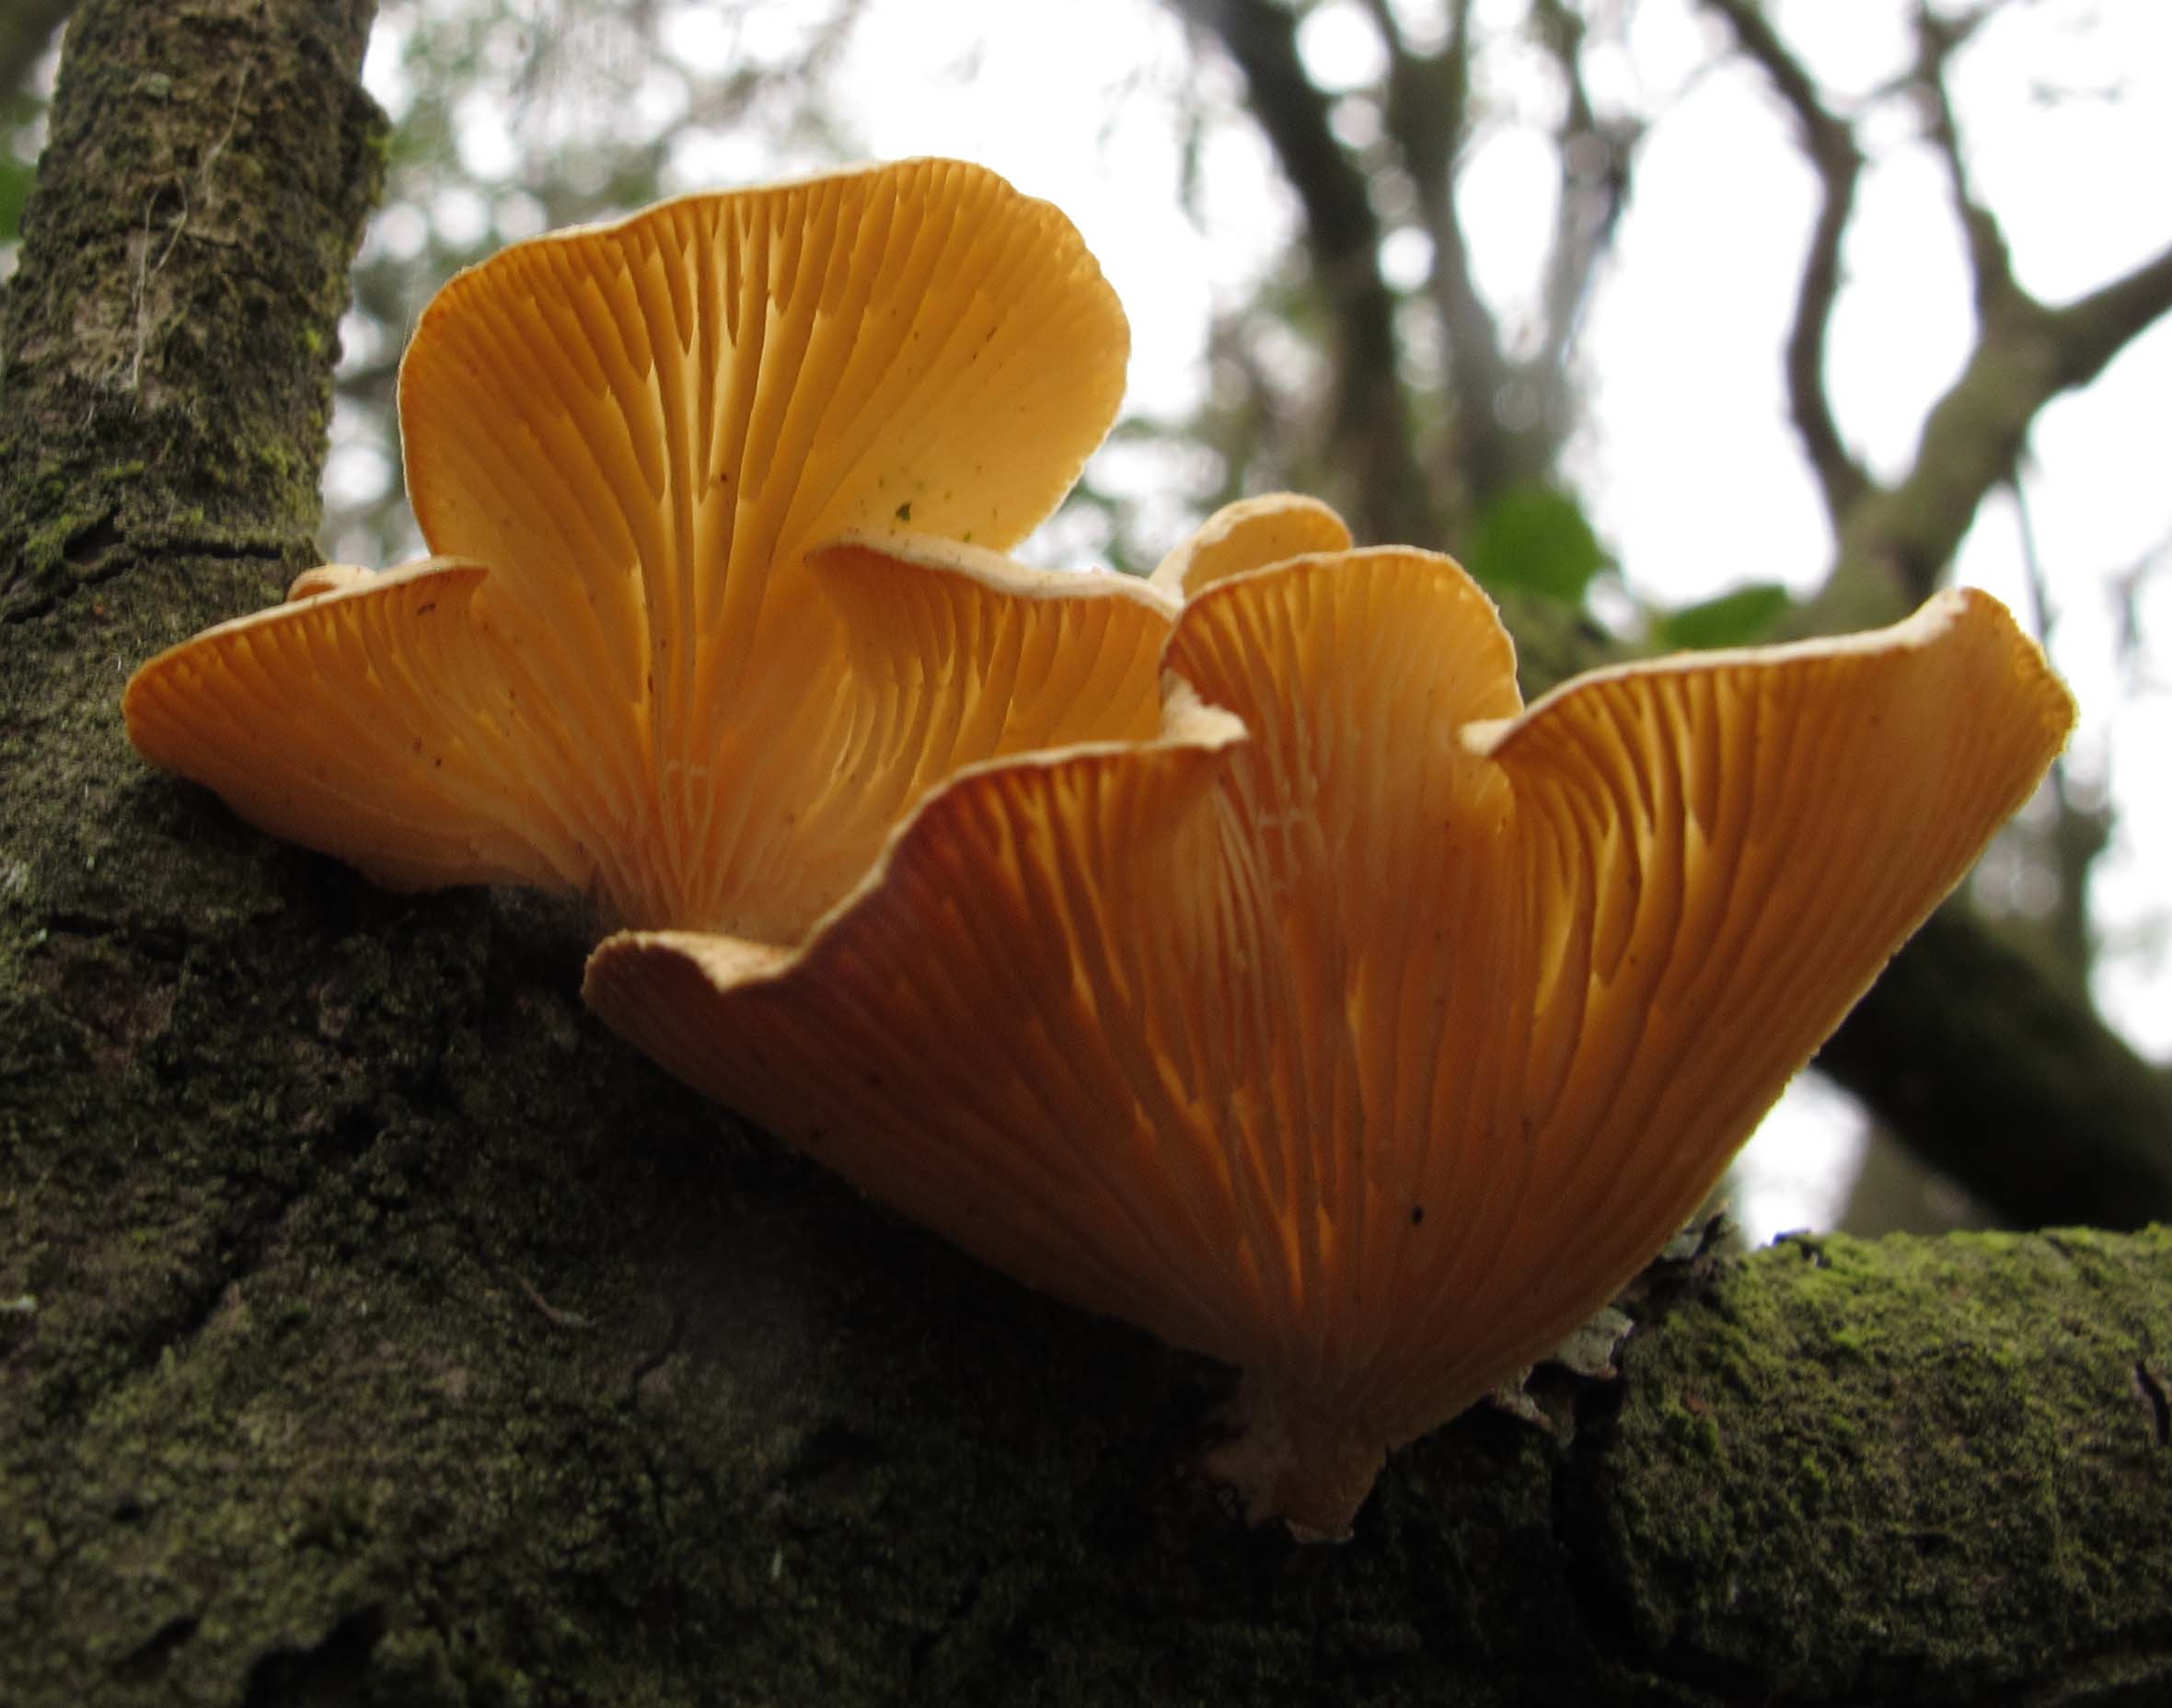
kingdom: Fungi
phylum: Basidiomycota
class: Agaricomycetes
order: Polyporales
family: Polyporaceae
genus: Neofavolus
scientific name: Neofavolus suavissimus
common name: anishat
